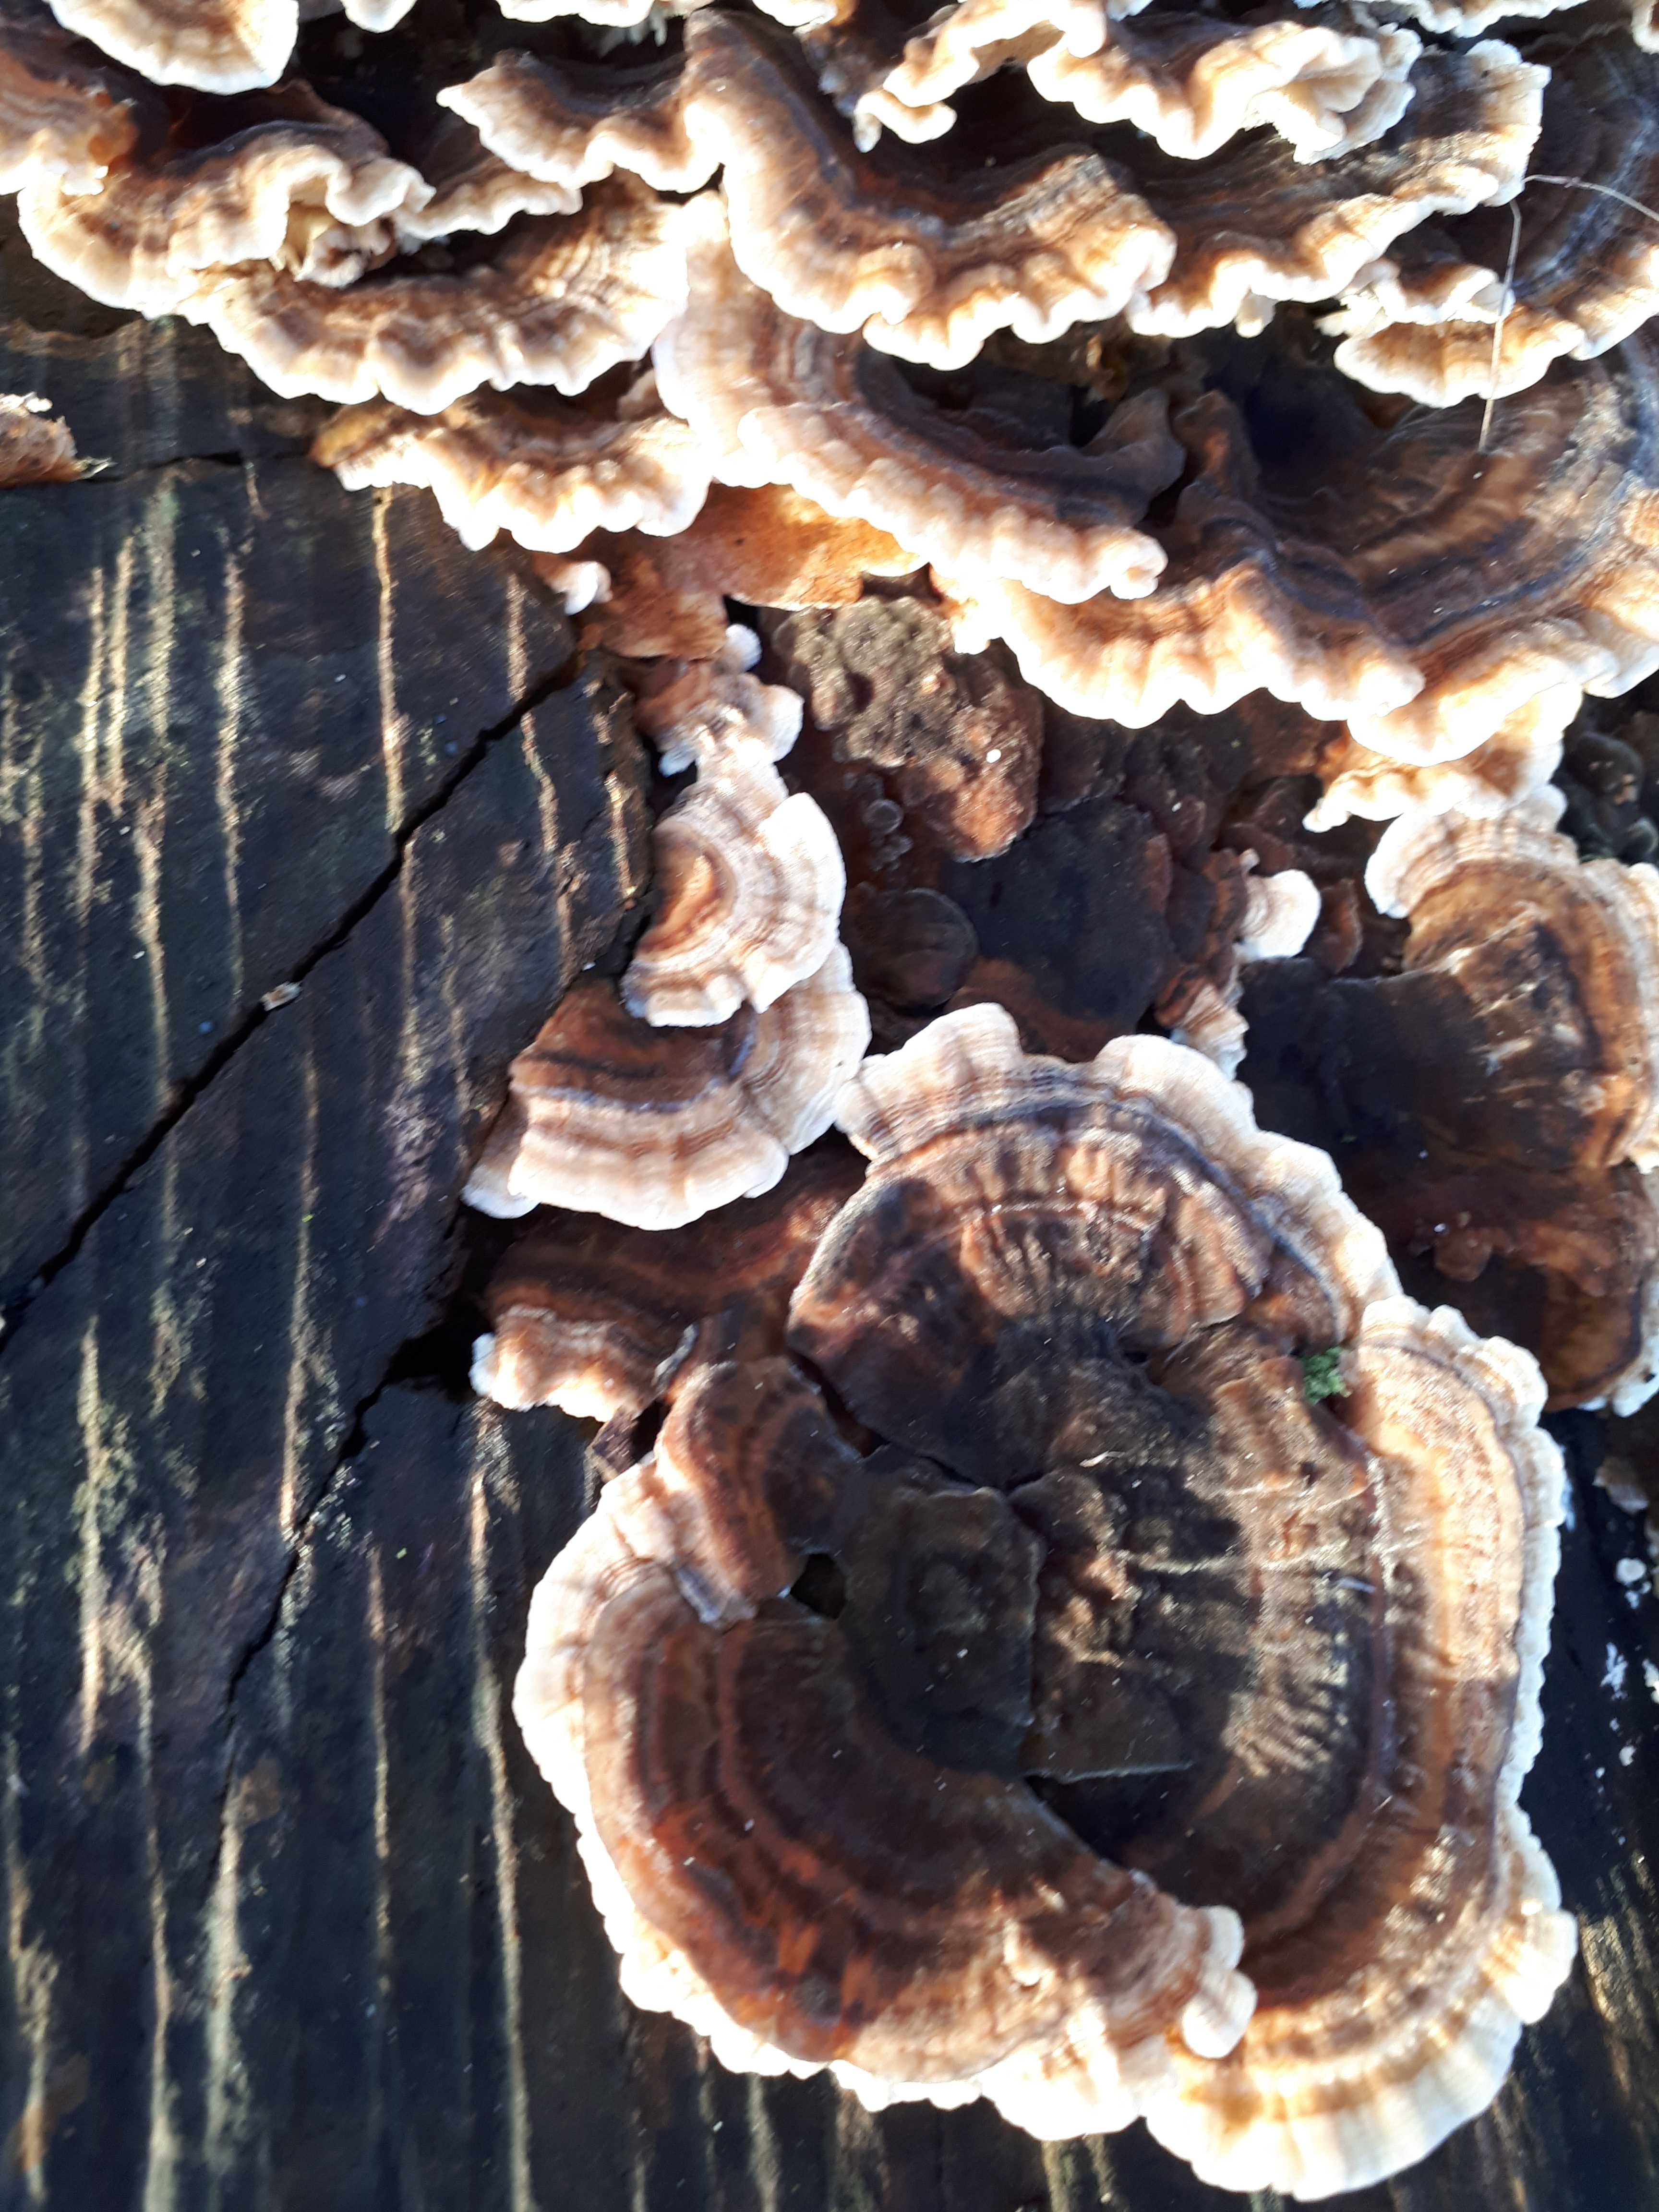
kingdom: Fungi
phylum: Basidiomycota
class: Agaricomycetes
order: Polyporales
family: Polyporaceae
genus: Trametes
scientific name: Trametes versicolor
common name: broget læderporesvamp
